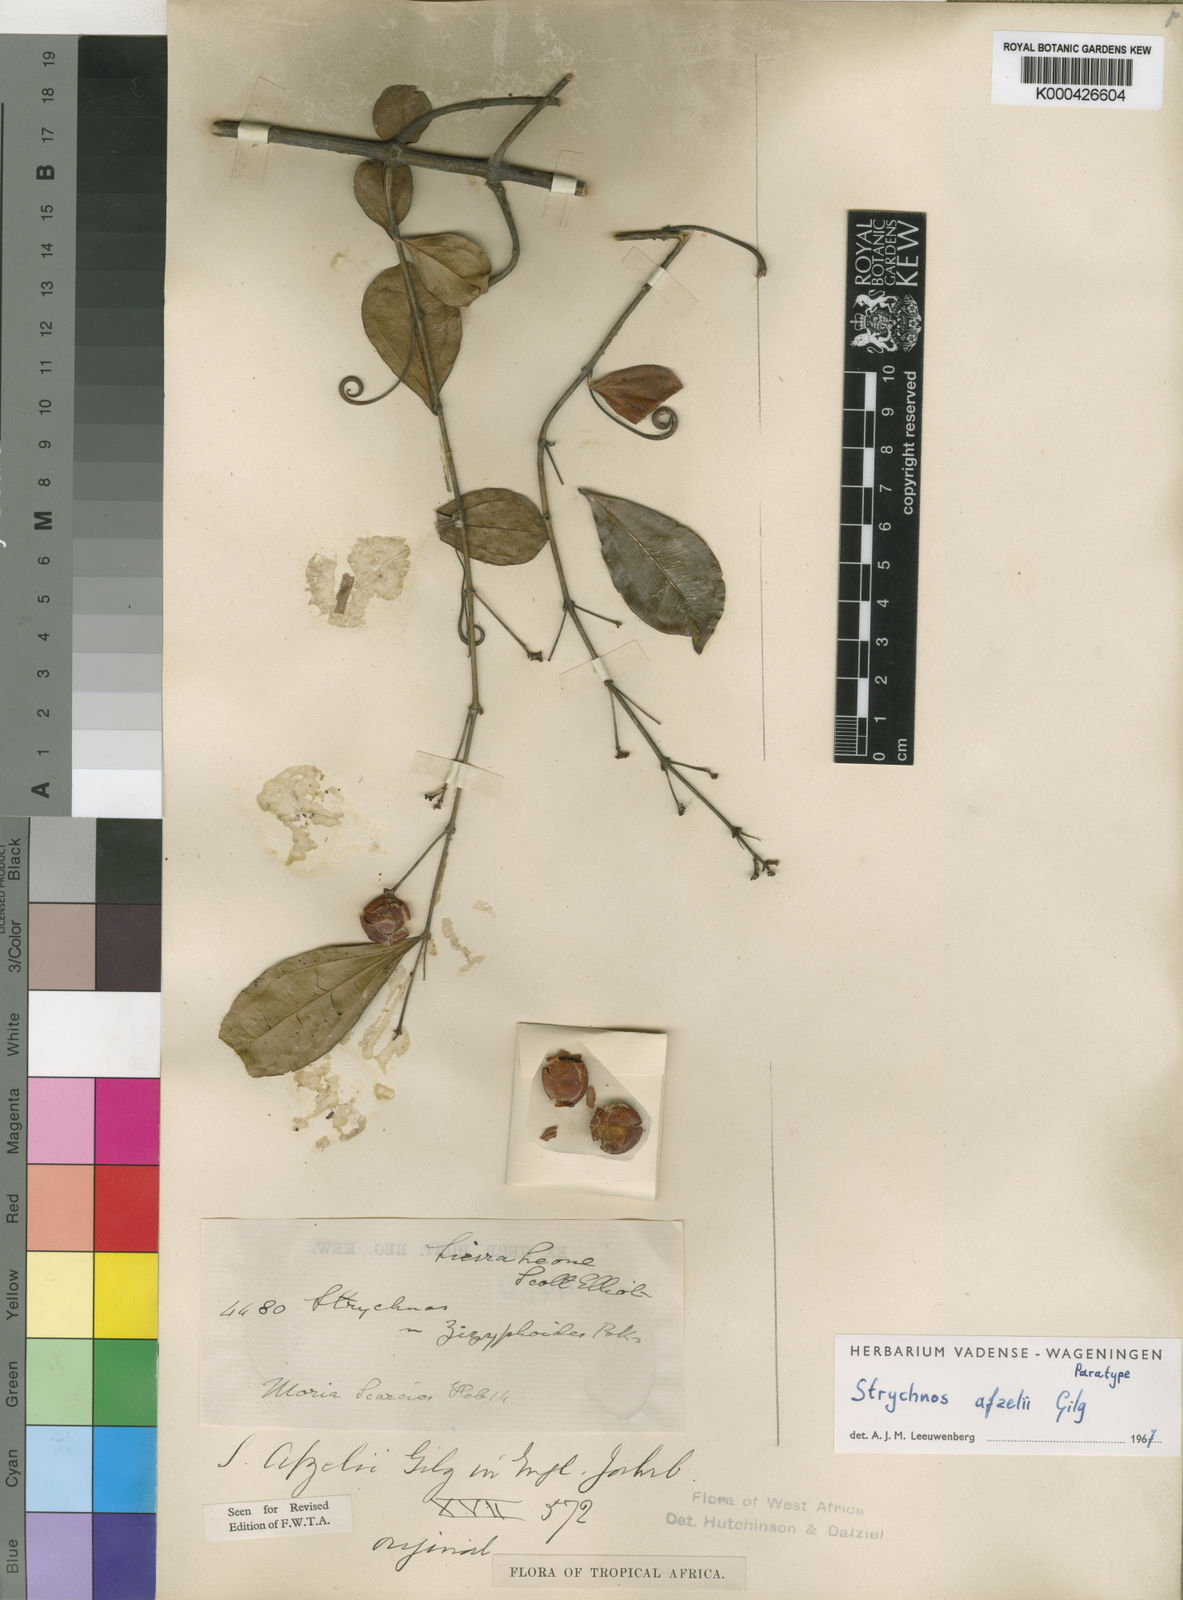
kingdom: Plantae
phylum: Tracheophyta
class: Magnoliopsida
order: Gentianales
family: Loganiaceae
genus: Strychnos
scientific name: Strychnos afzelii
